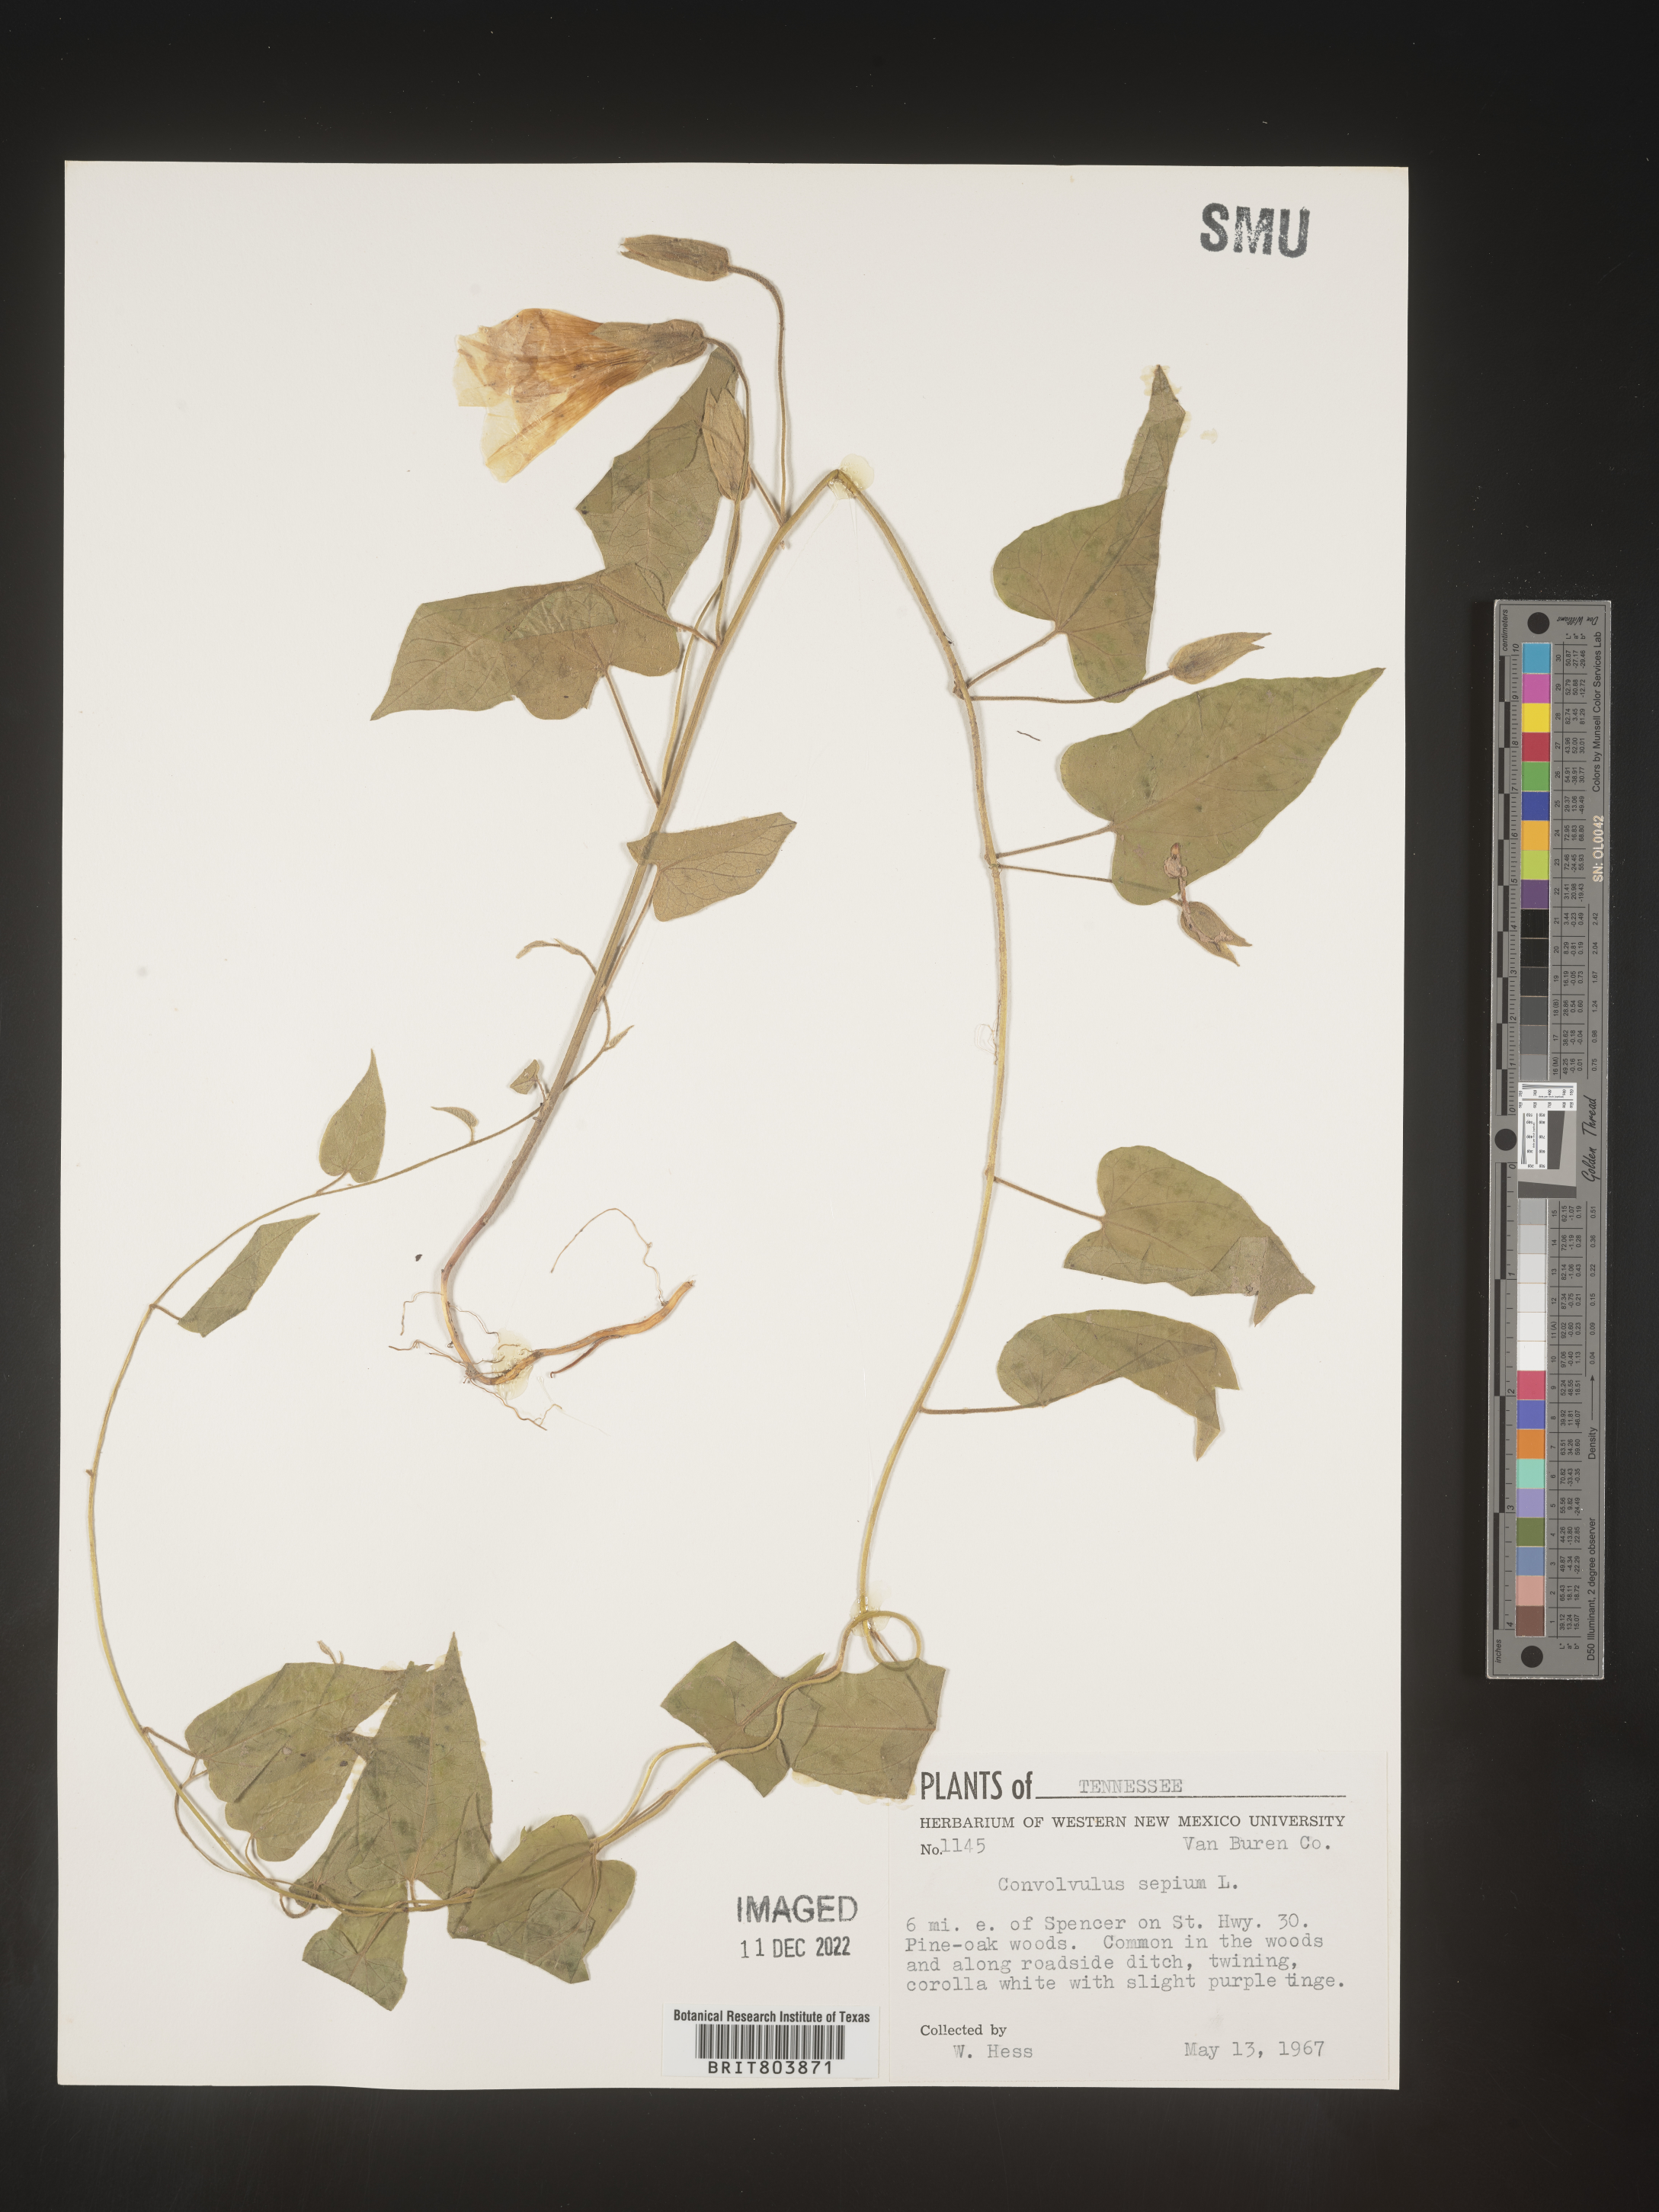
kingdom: Plantae
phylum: Tracheophyta
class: Magnoliopsida
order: Solanales
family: Convolvulaceae
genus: Calystegia
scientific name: Calystegia sepium
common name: Hedge bindweed
